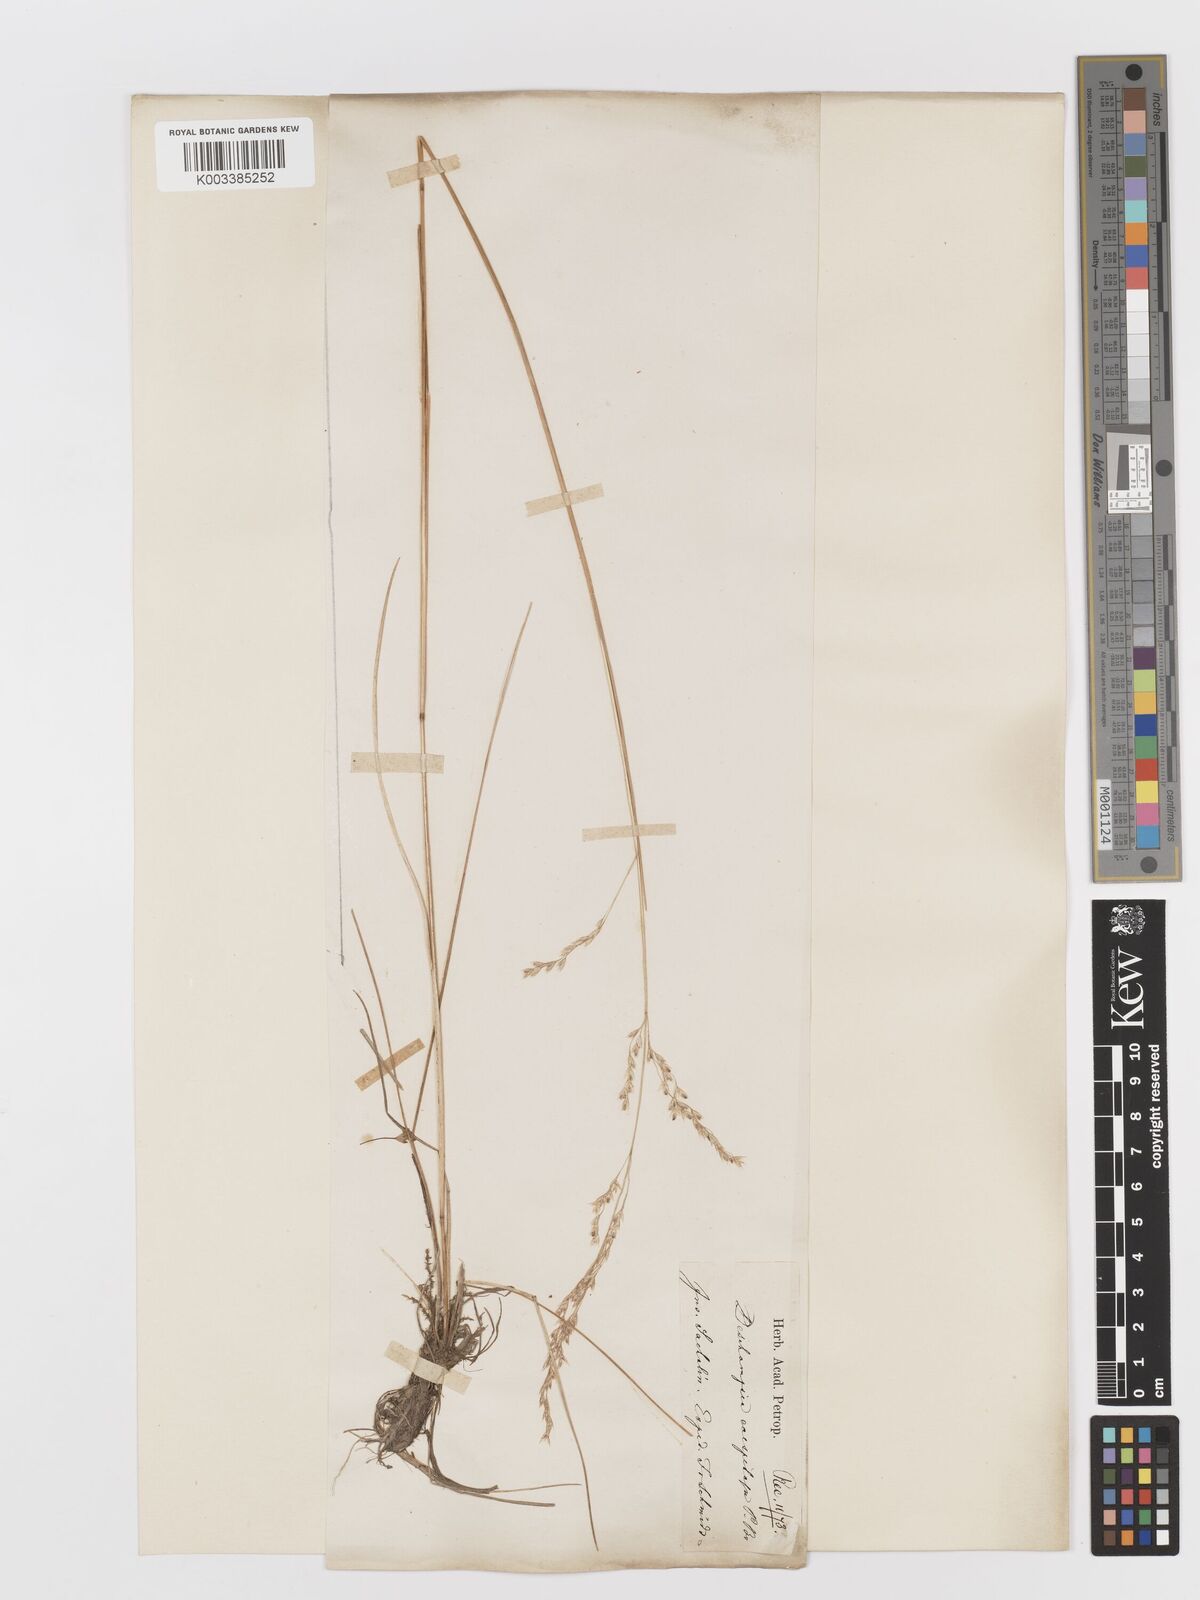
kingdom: Plantae
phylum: Tracheophyta
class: Liliopsida
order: Poales
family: Poaceae
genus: Deschampsia
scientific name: Deschampsia cespitosa
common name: Tufted hair-grass
